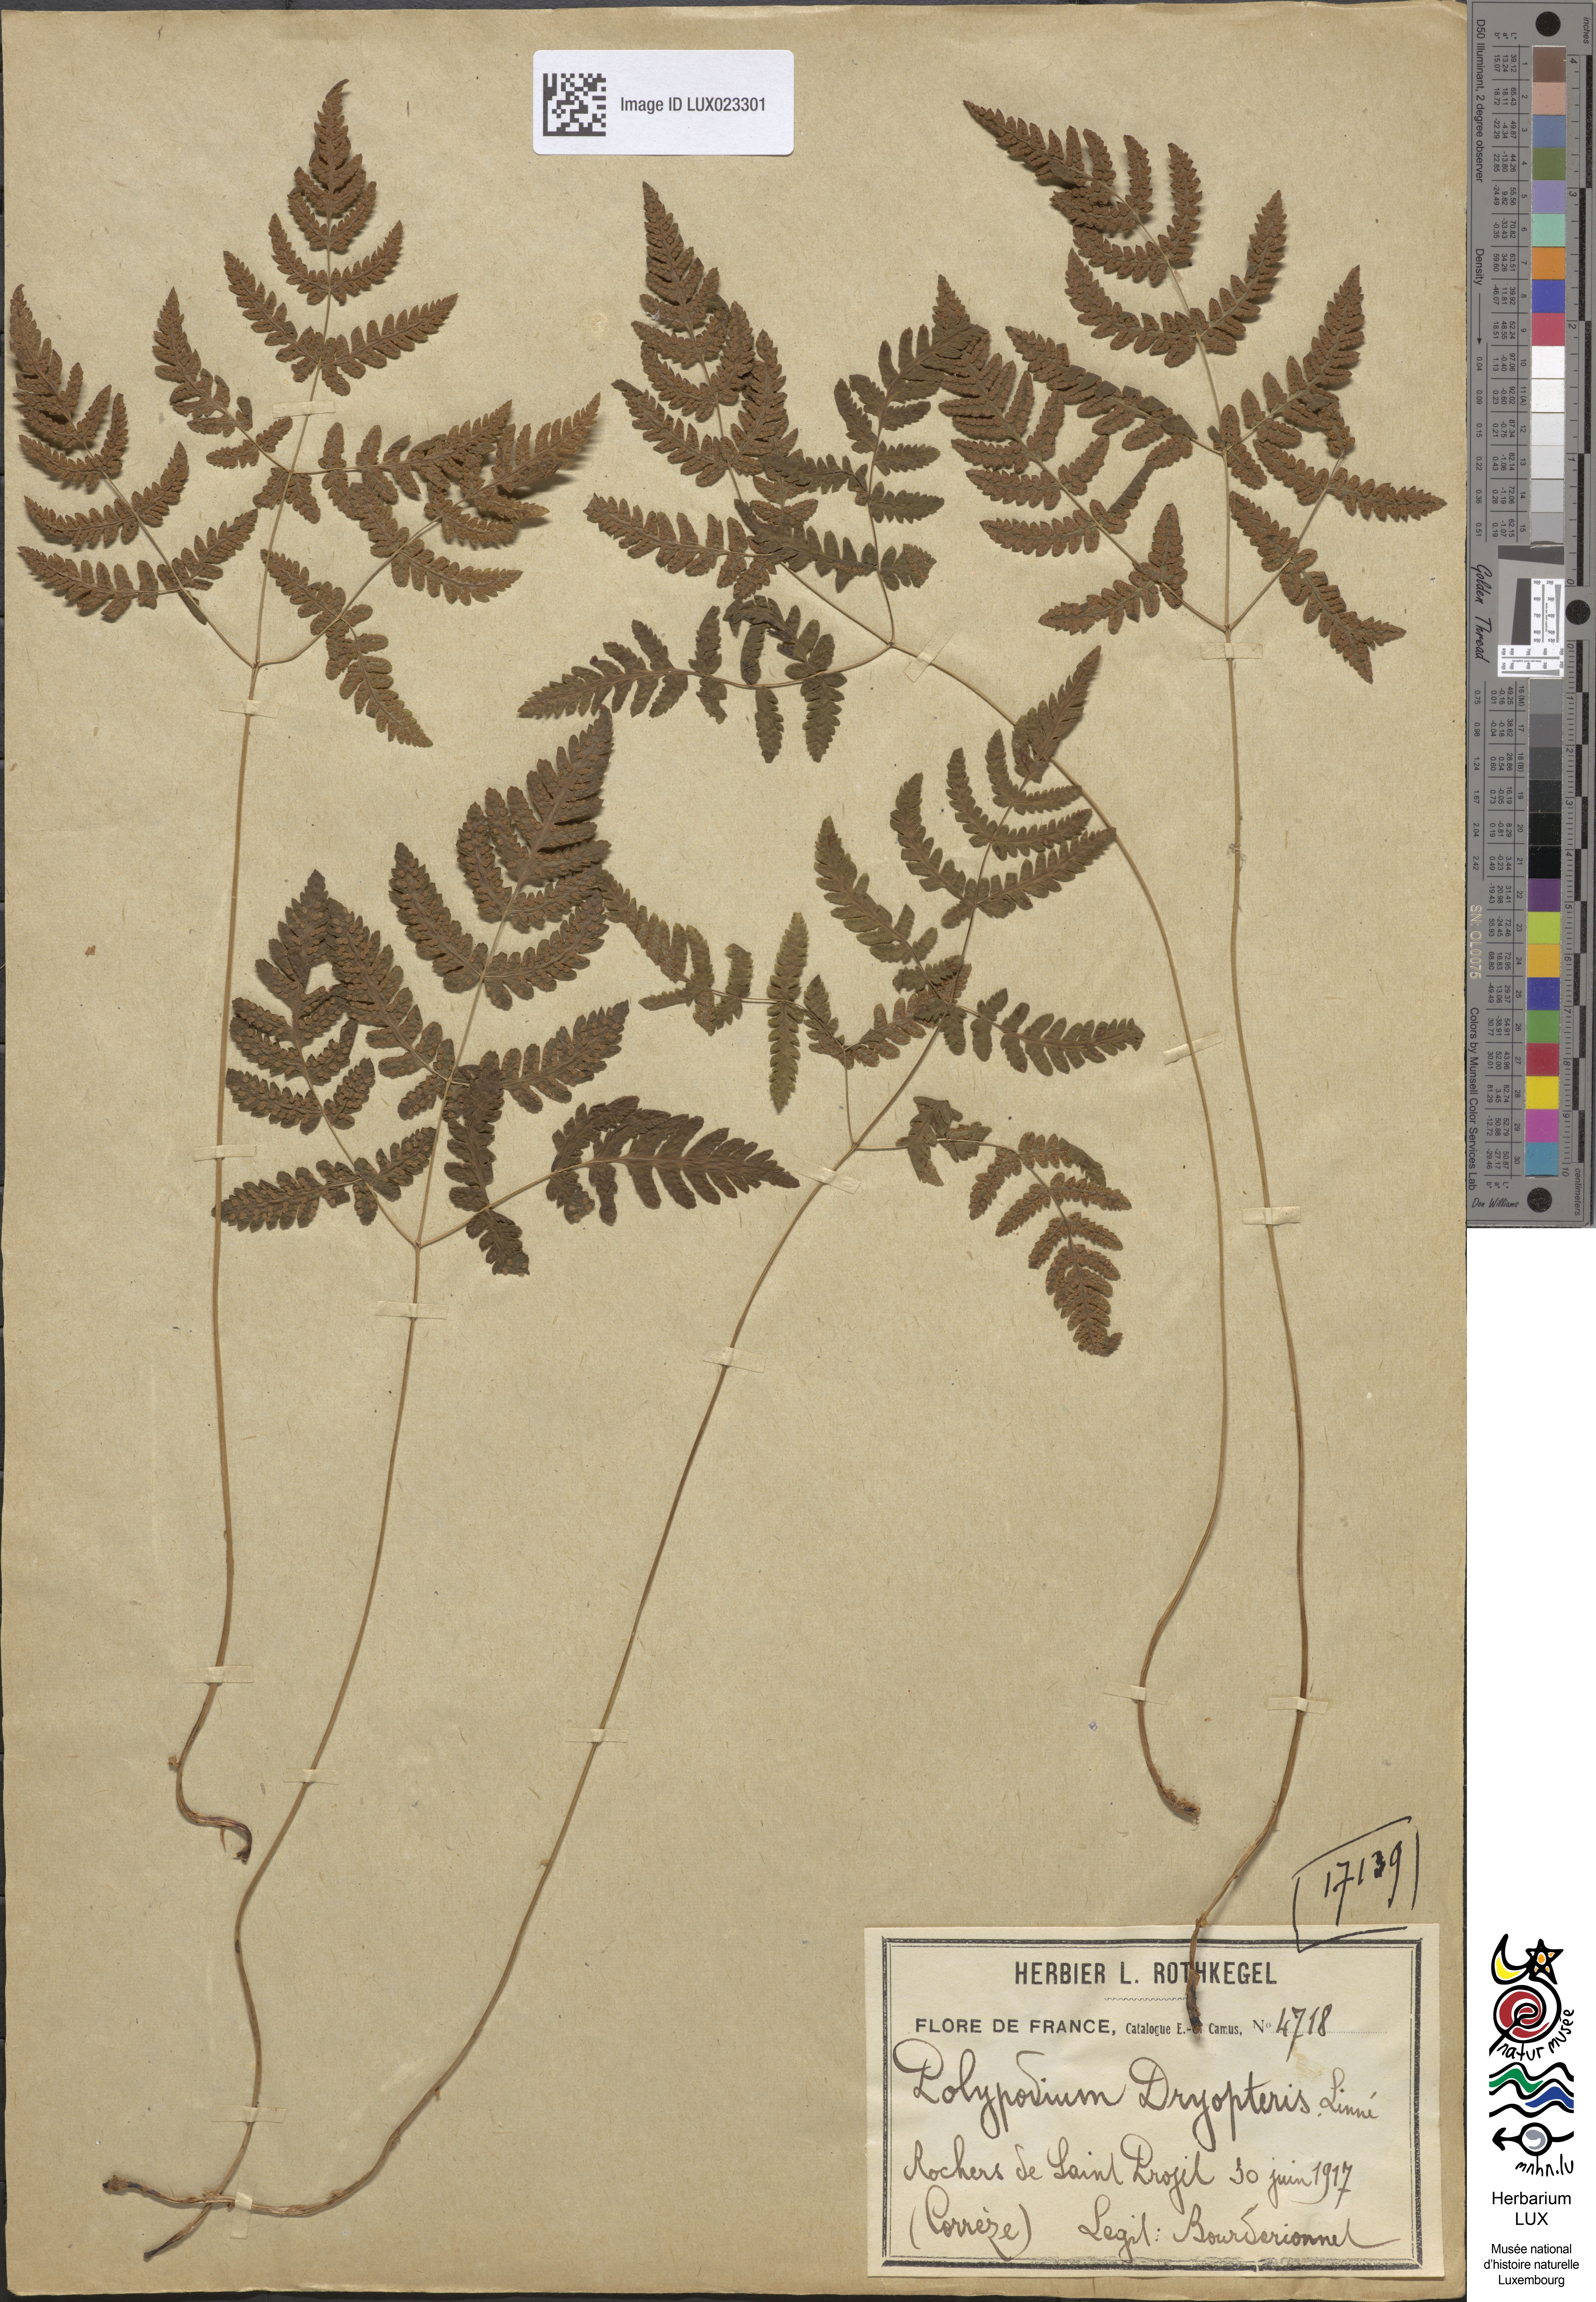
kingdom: Plantae
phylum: Tracheophyta
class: Polypodiopsida
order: Polypodiales
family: Cystopteridaceae
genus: Gymnocarpium
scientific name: Gymnocarpium dryopteris
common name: Oak fern
